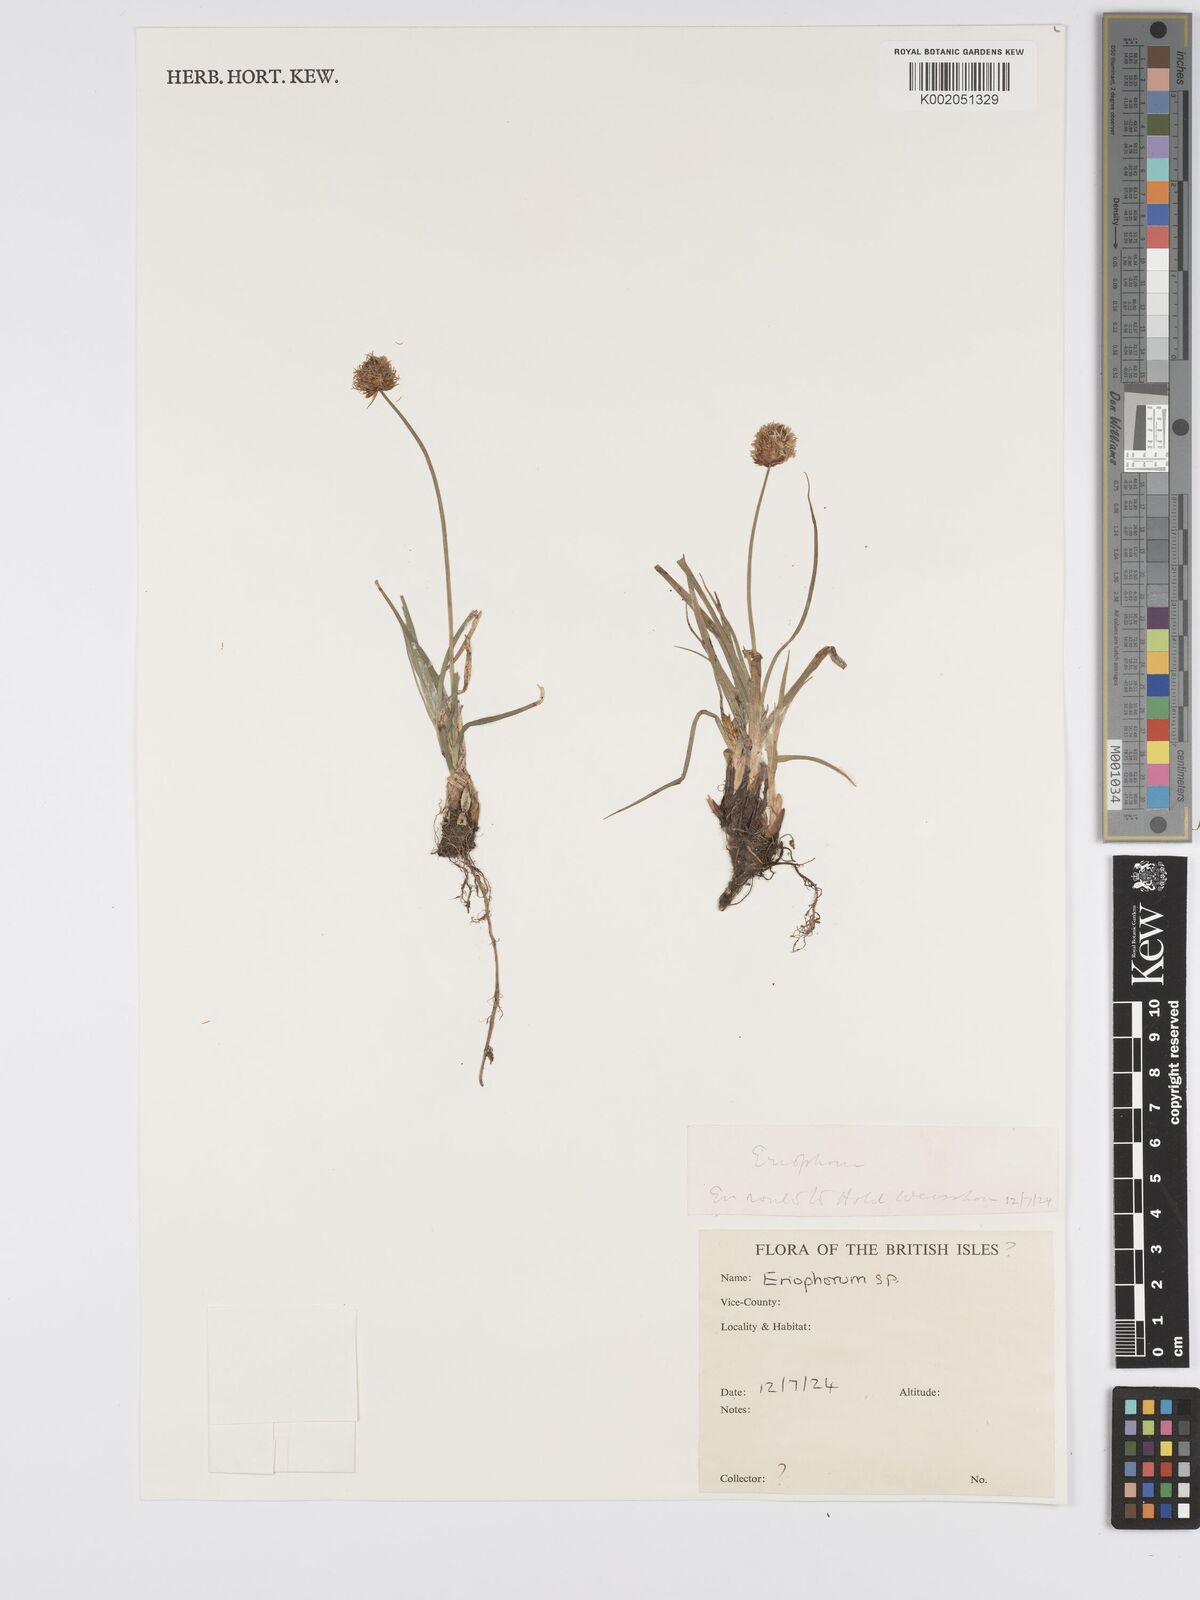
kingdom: Plantae
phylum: Tracheophyta
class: Liliopsida
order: Poales
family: Cyperaceae
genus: Eriophorum
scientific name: Eriophorum
